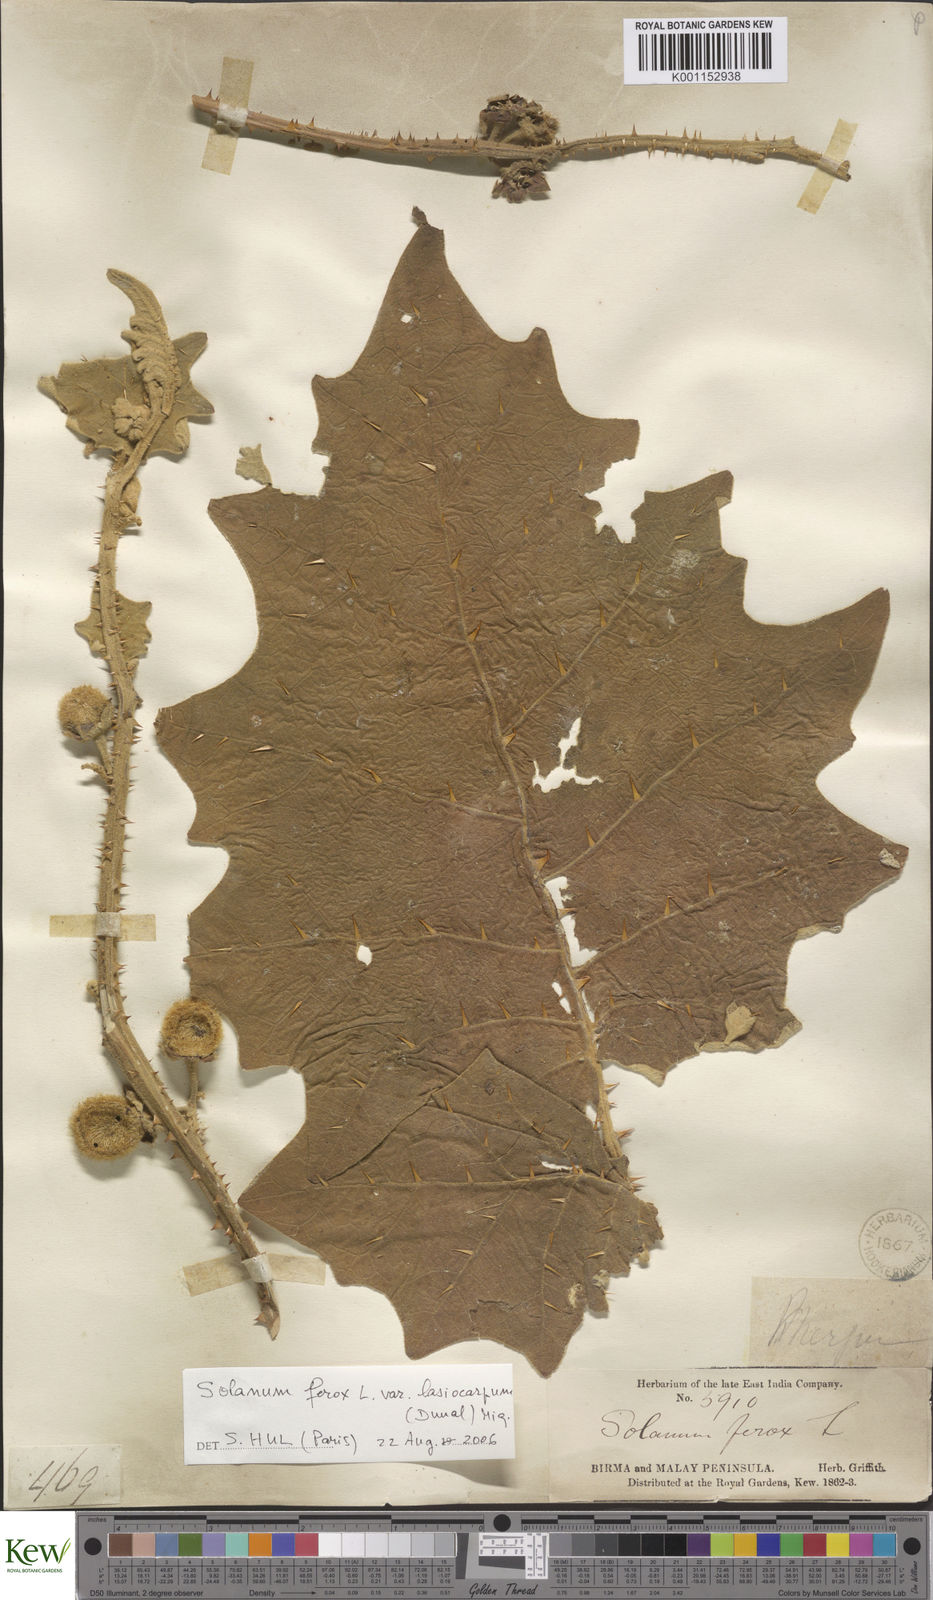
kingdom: Plantae
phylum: Tracheophyta
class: Magnoliopsida
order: Solanales
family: Solanaceae
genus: Solanum
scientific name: Solanum
